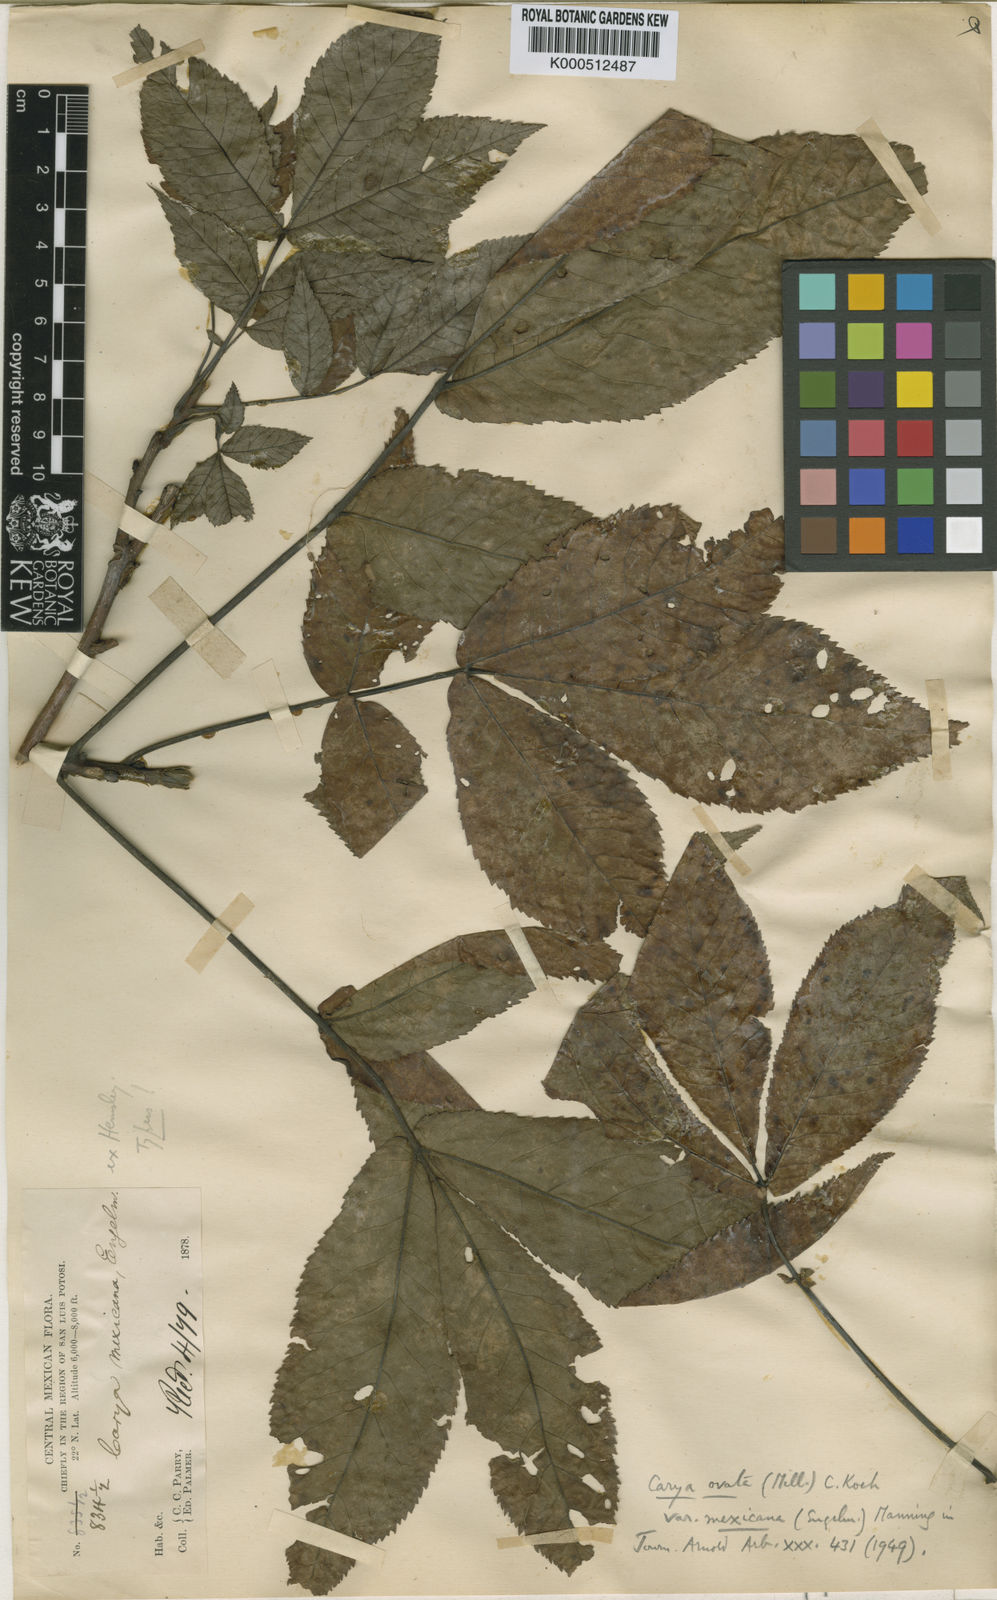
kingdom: Plantae
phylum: Tracheophyta
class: Magnoliopsida
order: Fagales
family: Juglandaceae
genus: Carya
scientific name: Carya ovata
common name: Shagbark hickory
